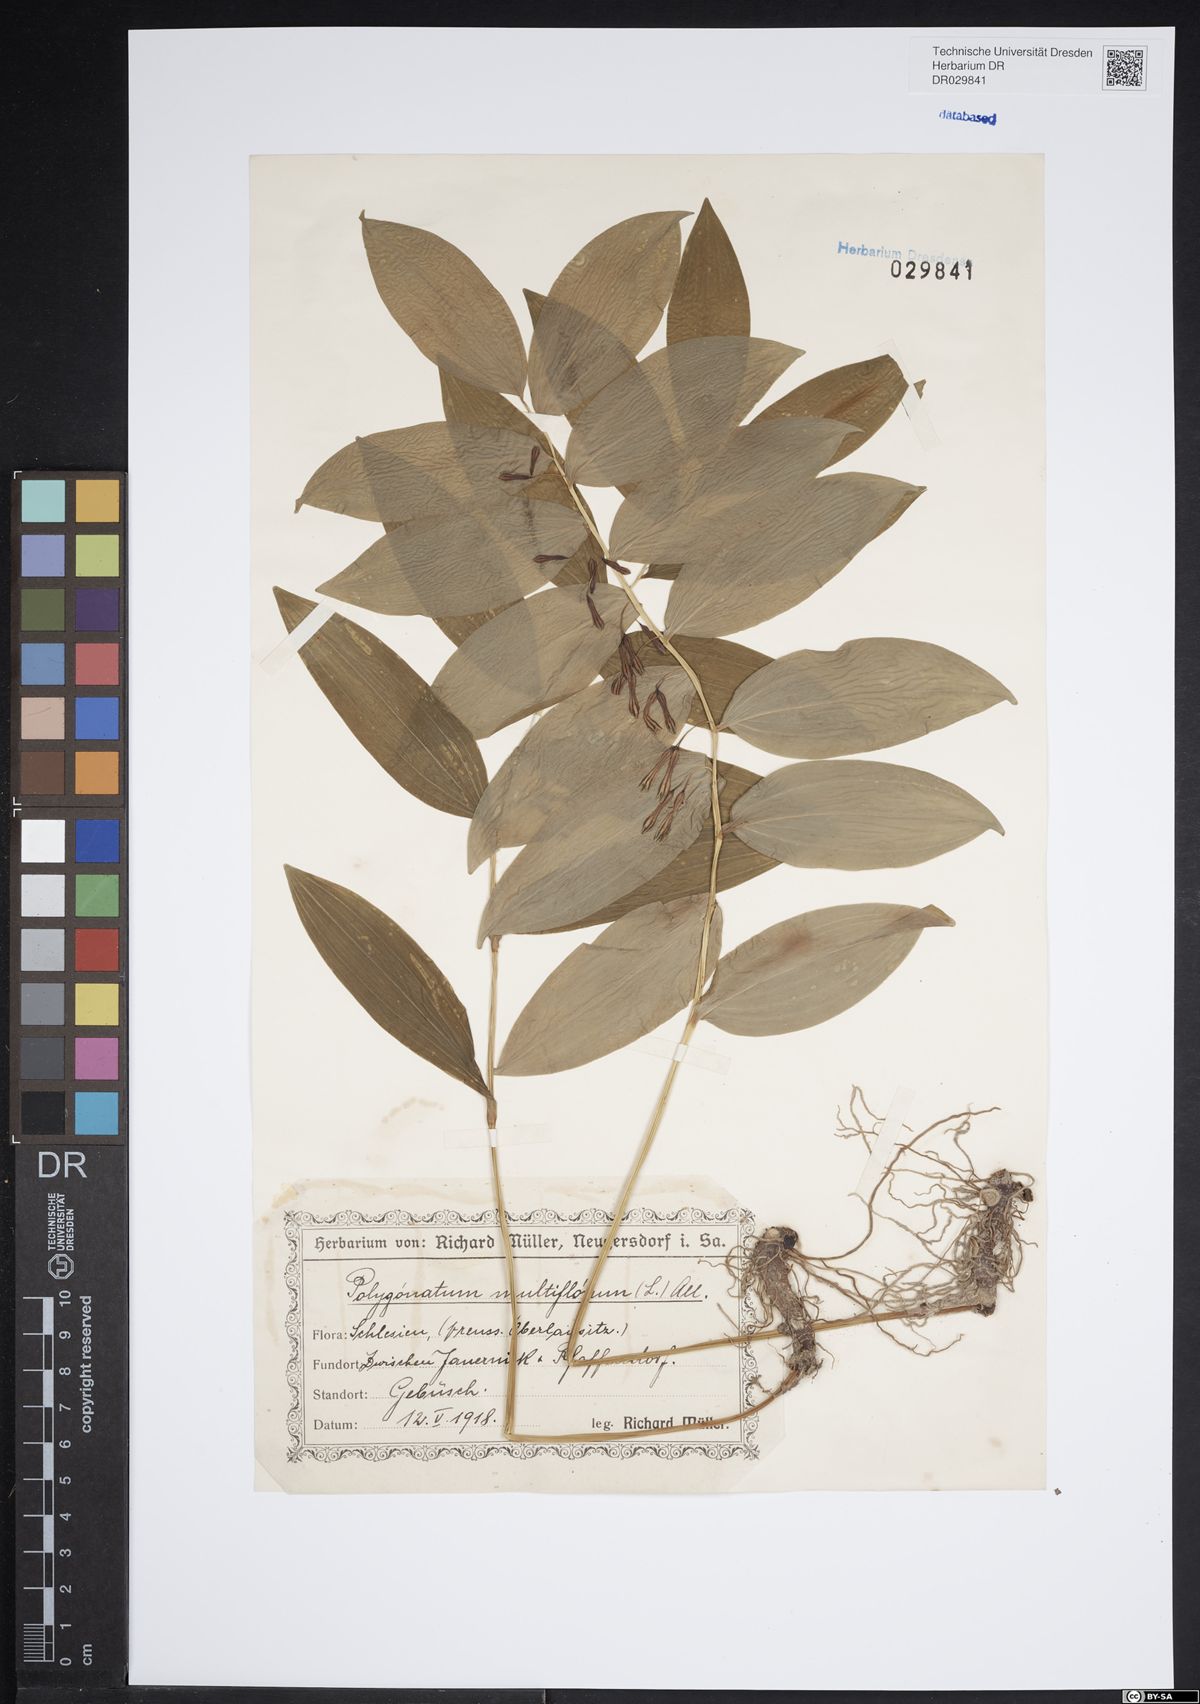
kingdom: Plantae
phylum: Tracheophyta
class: Liliopsida
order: Asparagales
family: Asparagaceae
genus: Polygonatum
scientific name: Polygonatum odoratum
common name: Angular solomon's-seal
